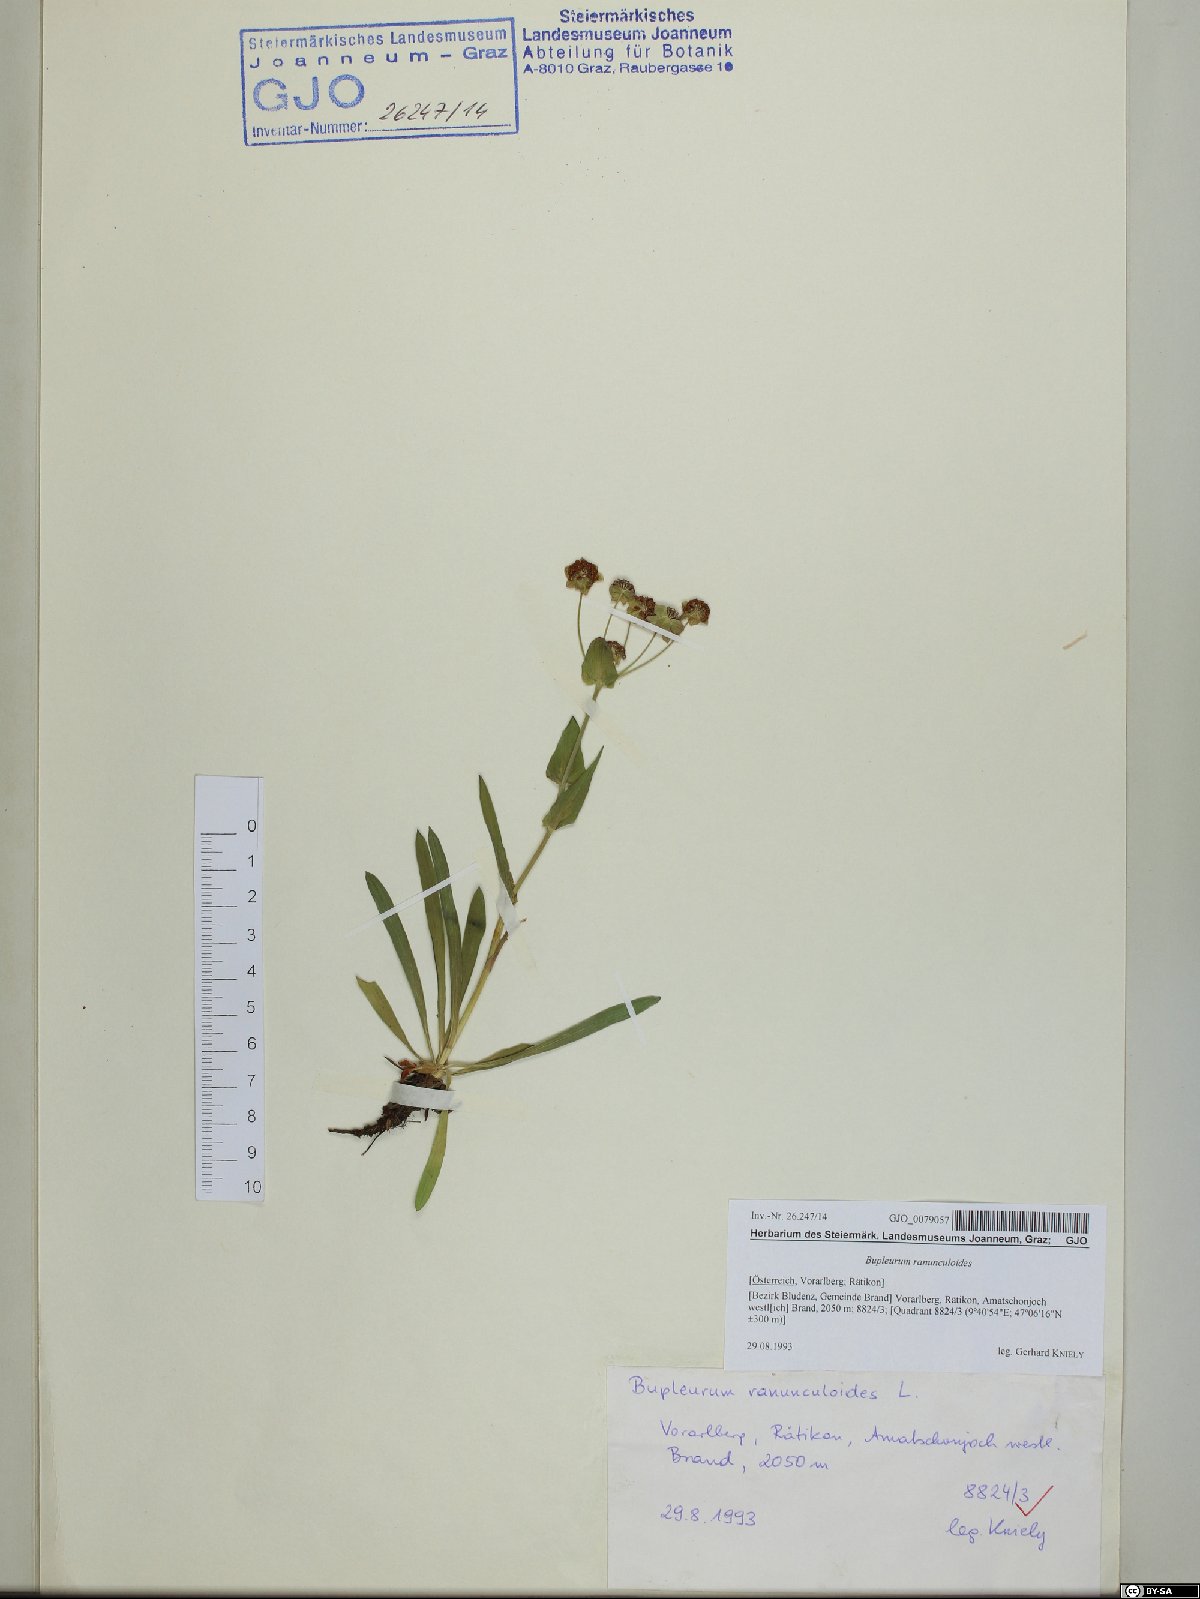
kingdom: Plantae
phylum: Tracheophyta
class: Magnoliopsida
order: Apiales
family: Apiaceae
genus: Bupleurum
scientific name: Bupleurum ranunculoides
